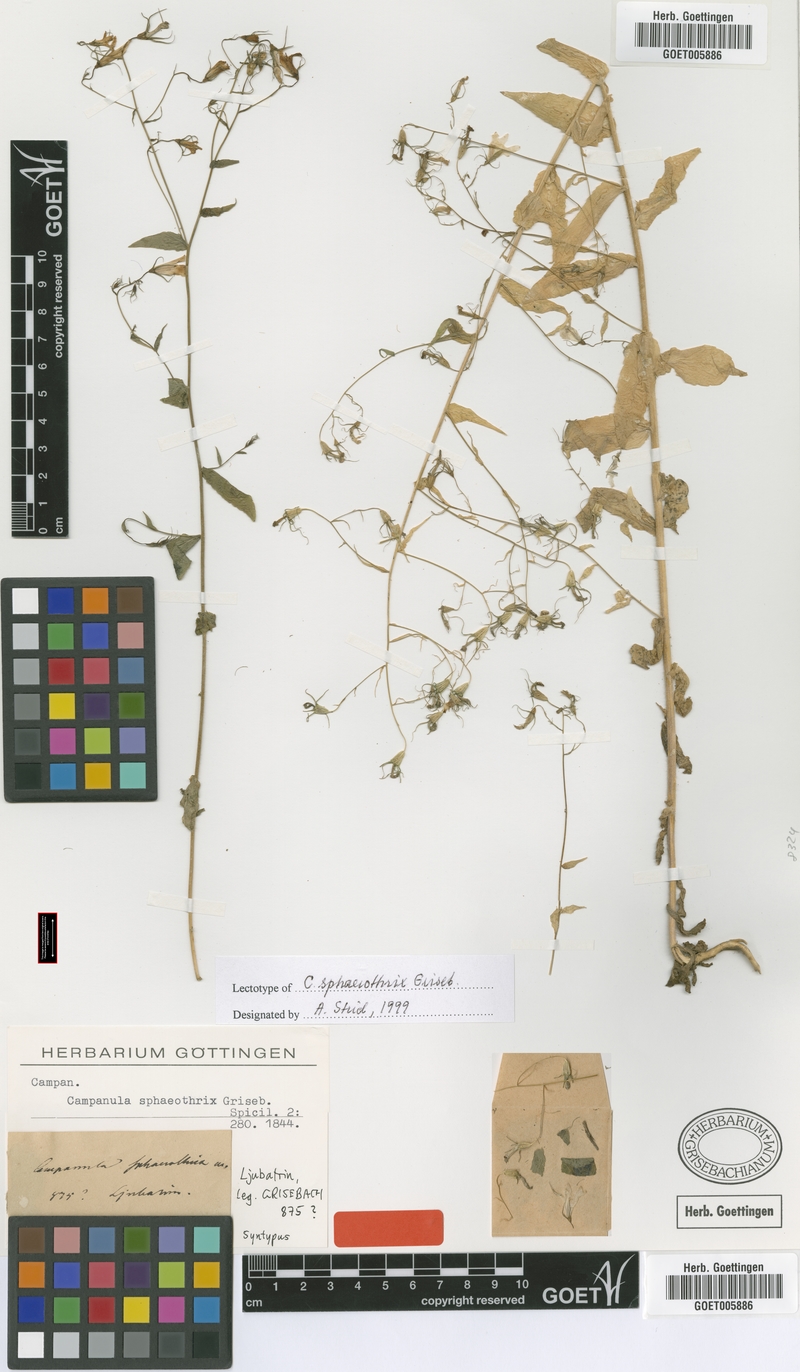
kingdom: Plantae
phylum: Tracheophyta
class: Magnoliopsida
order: Asterales
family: Campanulaceae
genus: Campanula
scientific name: Campanula sparsa
